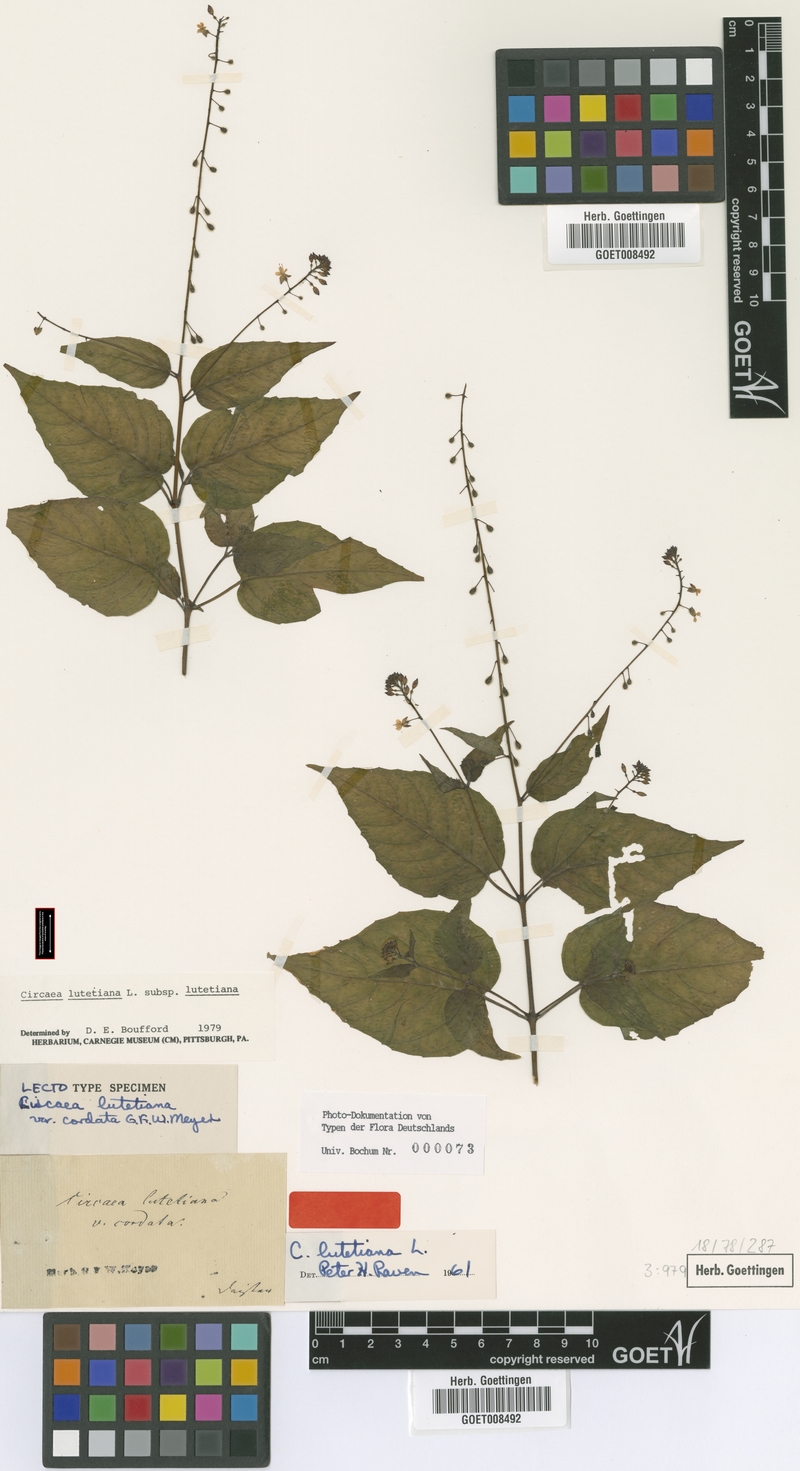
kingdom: Plantae
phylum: Tracheophyta
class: Magnoliopsida
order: Myrtales
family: Onagraceae
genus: Circaea
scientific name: Circaea lutetiana
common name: Enchanter's-nightshade
